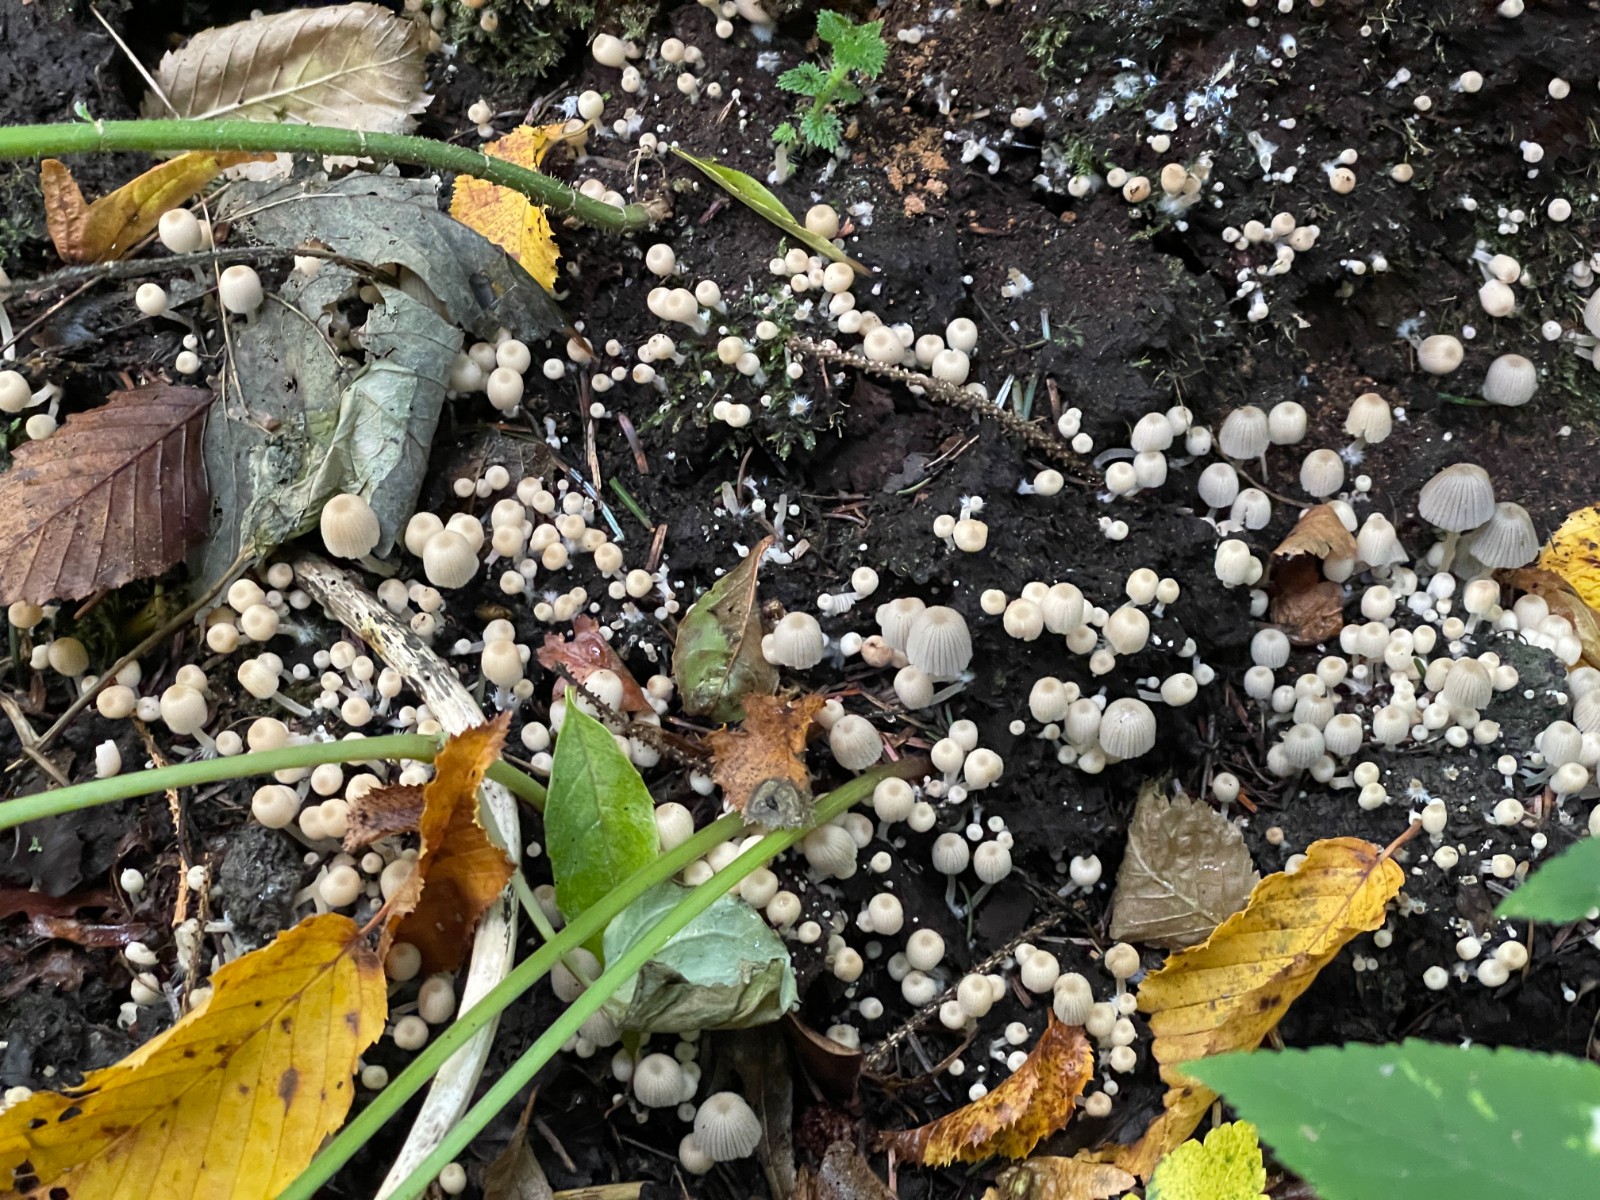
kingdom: Fungi
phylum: Basidiomycota
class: Agaricomycetes
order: Agaricales
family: Psathyrellaceae
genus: Coprinellus
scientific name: Coprinellus disseminatus
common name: bredsået blækhat
